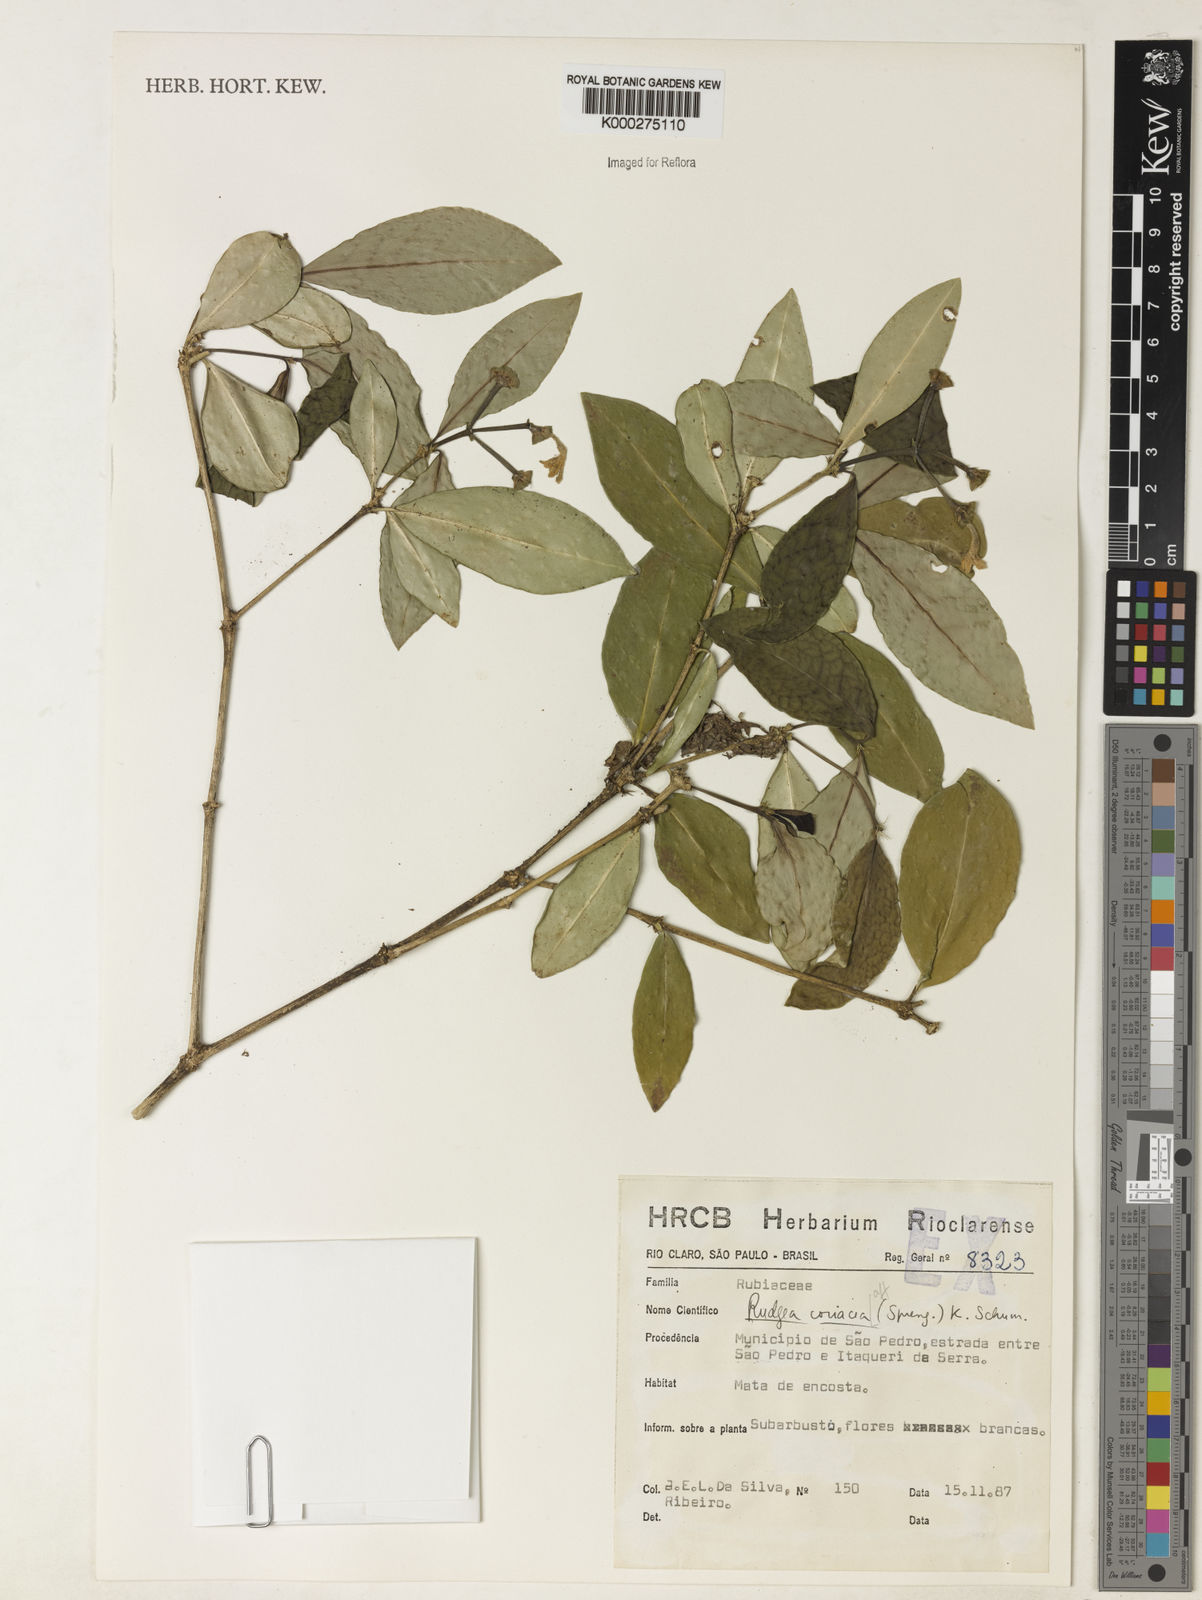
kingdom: Plantae
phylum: Tracheophyta
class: Magnoliopsida
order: Gentianales
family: Rubiaceae
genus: Rudgea
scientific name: Rudgea parquioides
